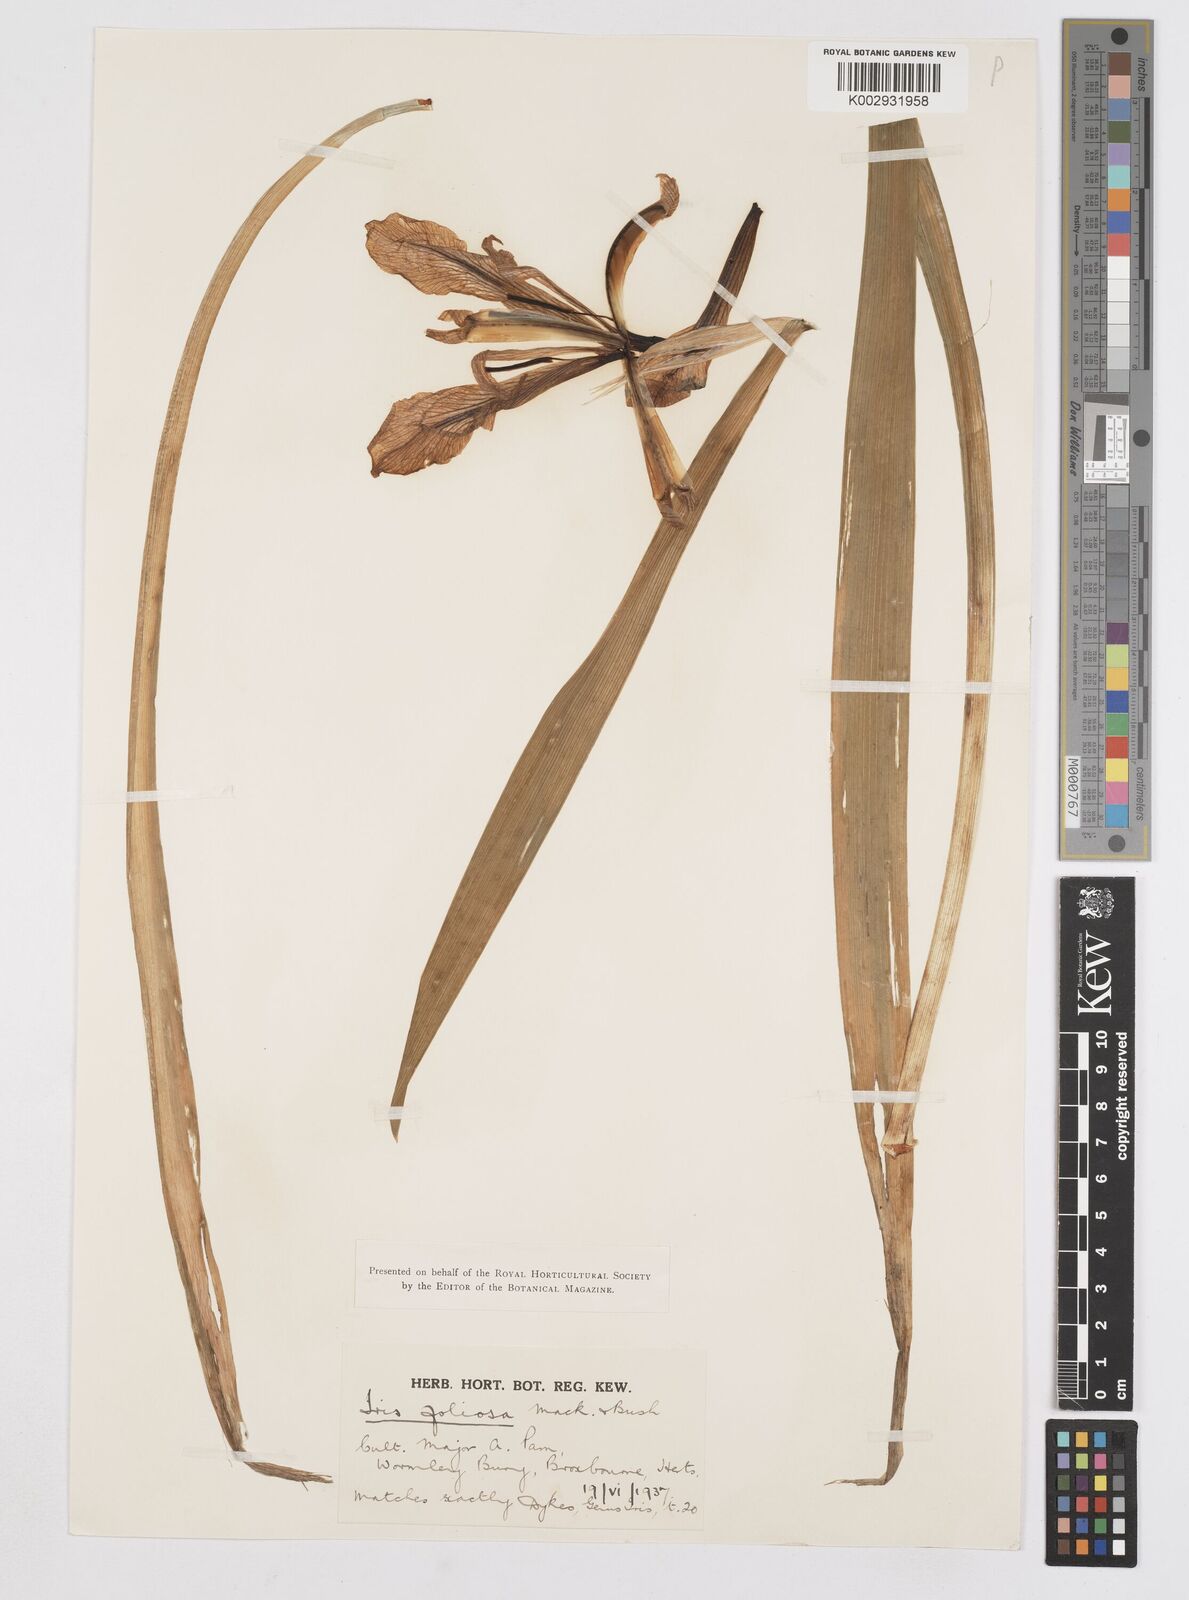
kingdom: Plantae
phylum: Tracheophyta
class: Liliopsida
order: Asparagales
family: Iridaceae
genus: Iris
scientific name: Iris brevicaulis
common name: Zigzag iris
